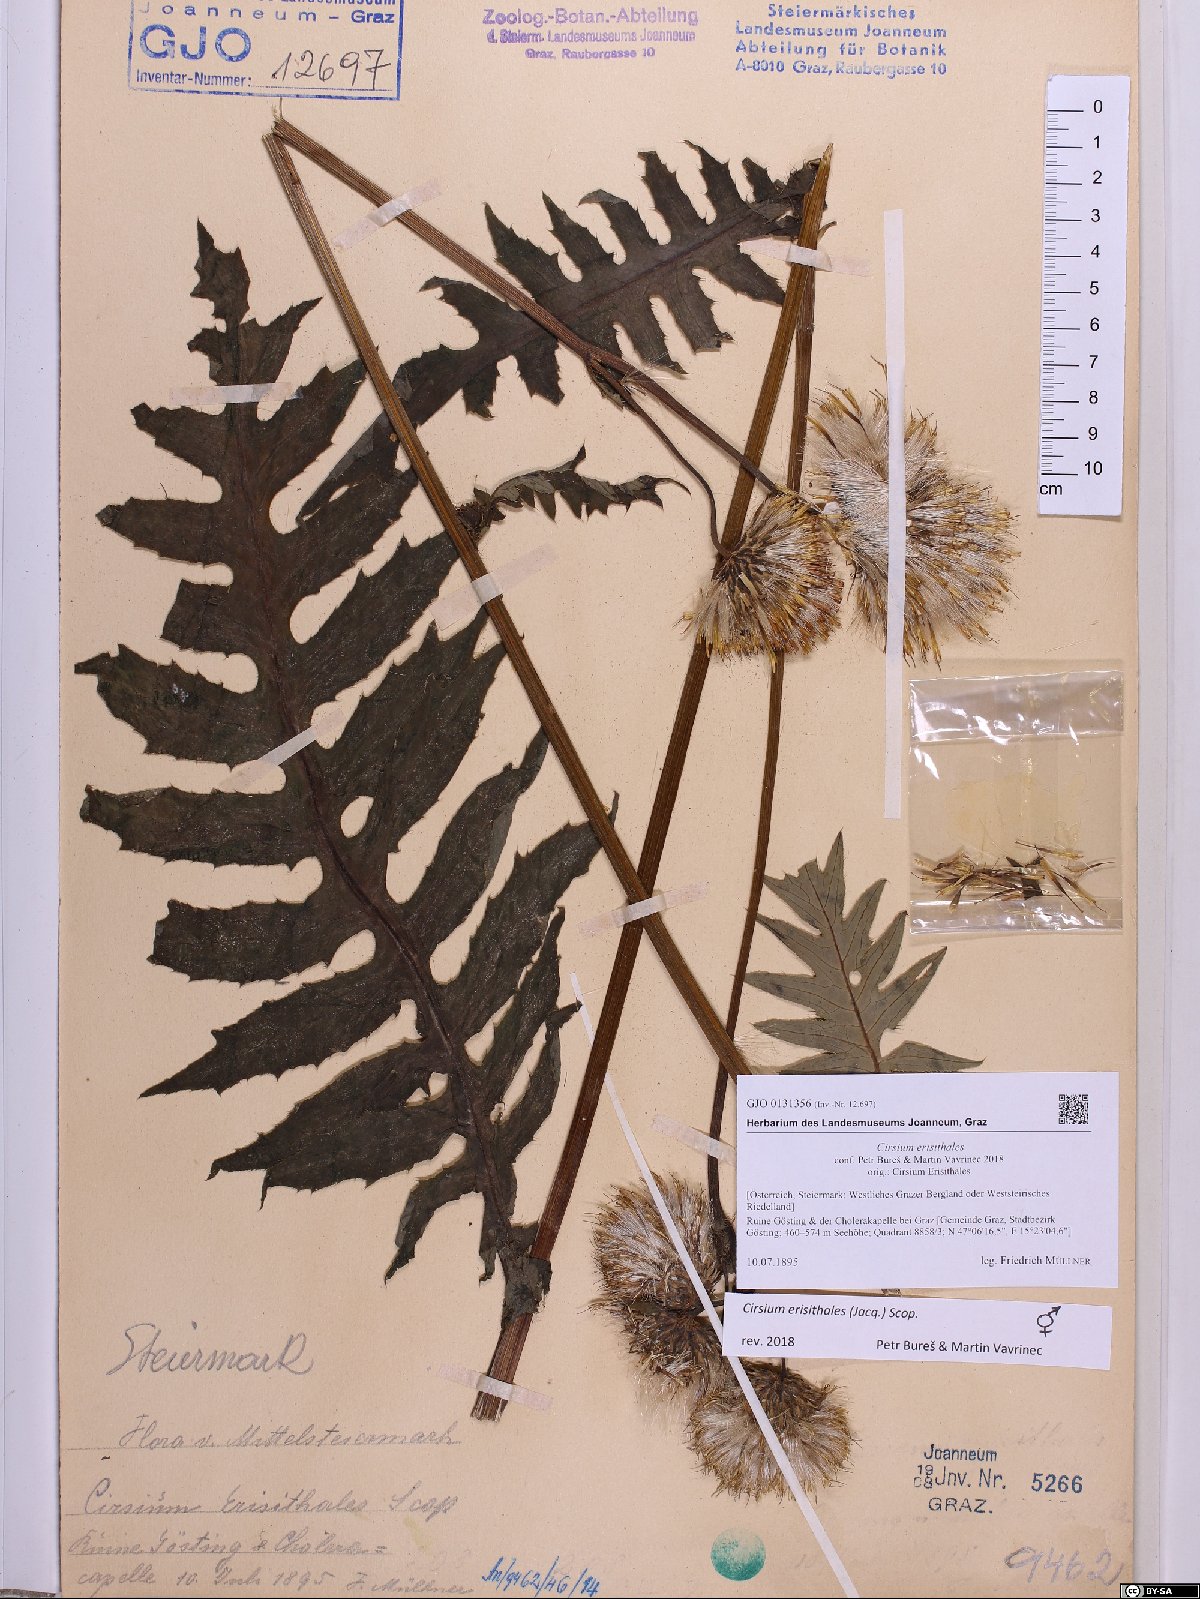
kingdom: Plantae
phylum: Tracheophyta
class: Magnoliopsida
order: Asterales
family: Asteraceae
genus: Cirsium
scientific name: Cirsium erisithales
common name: Yellow thistle
